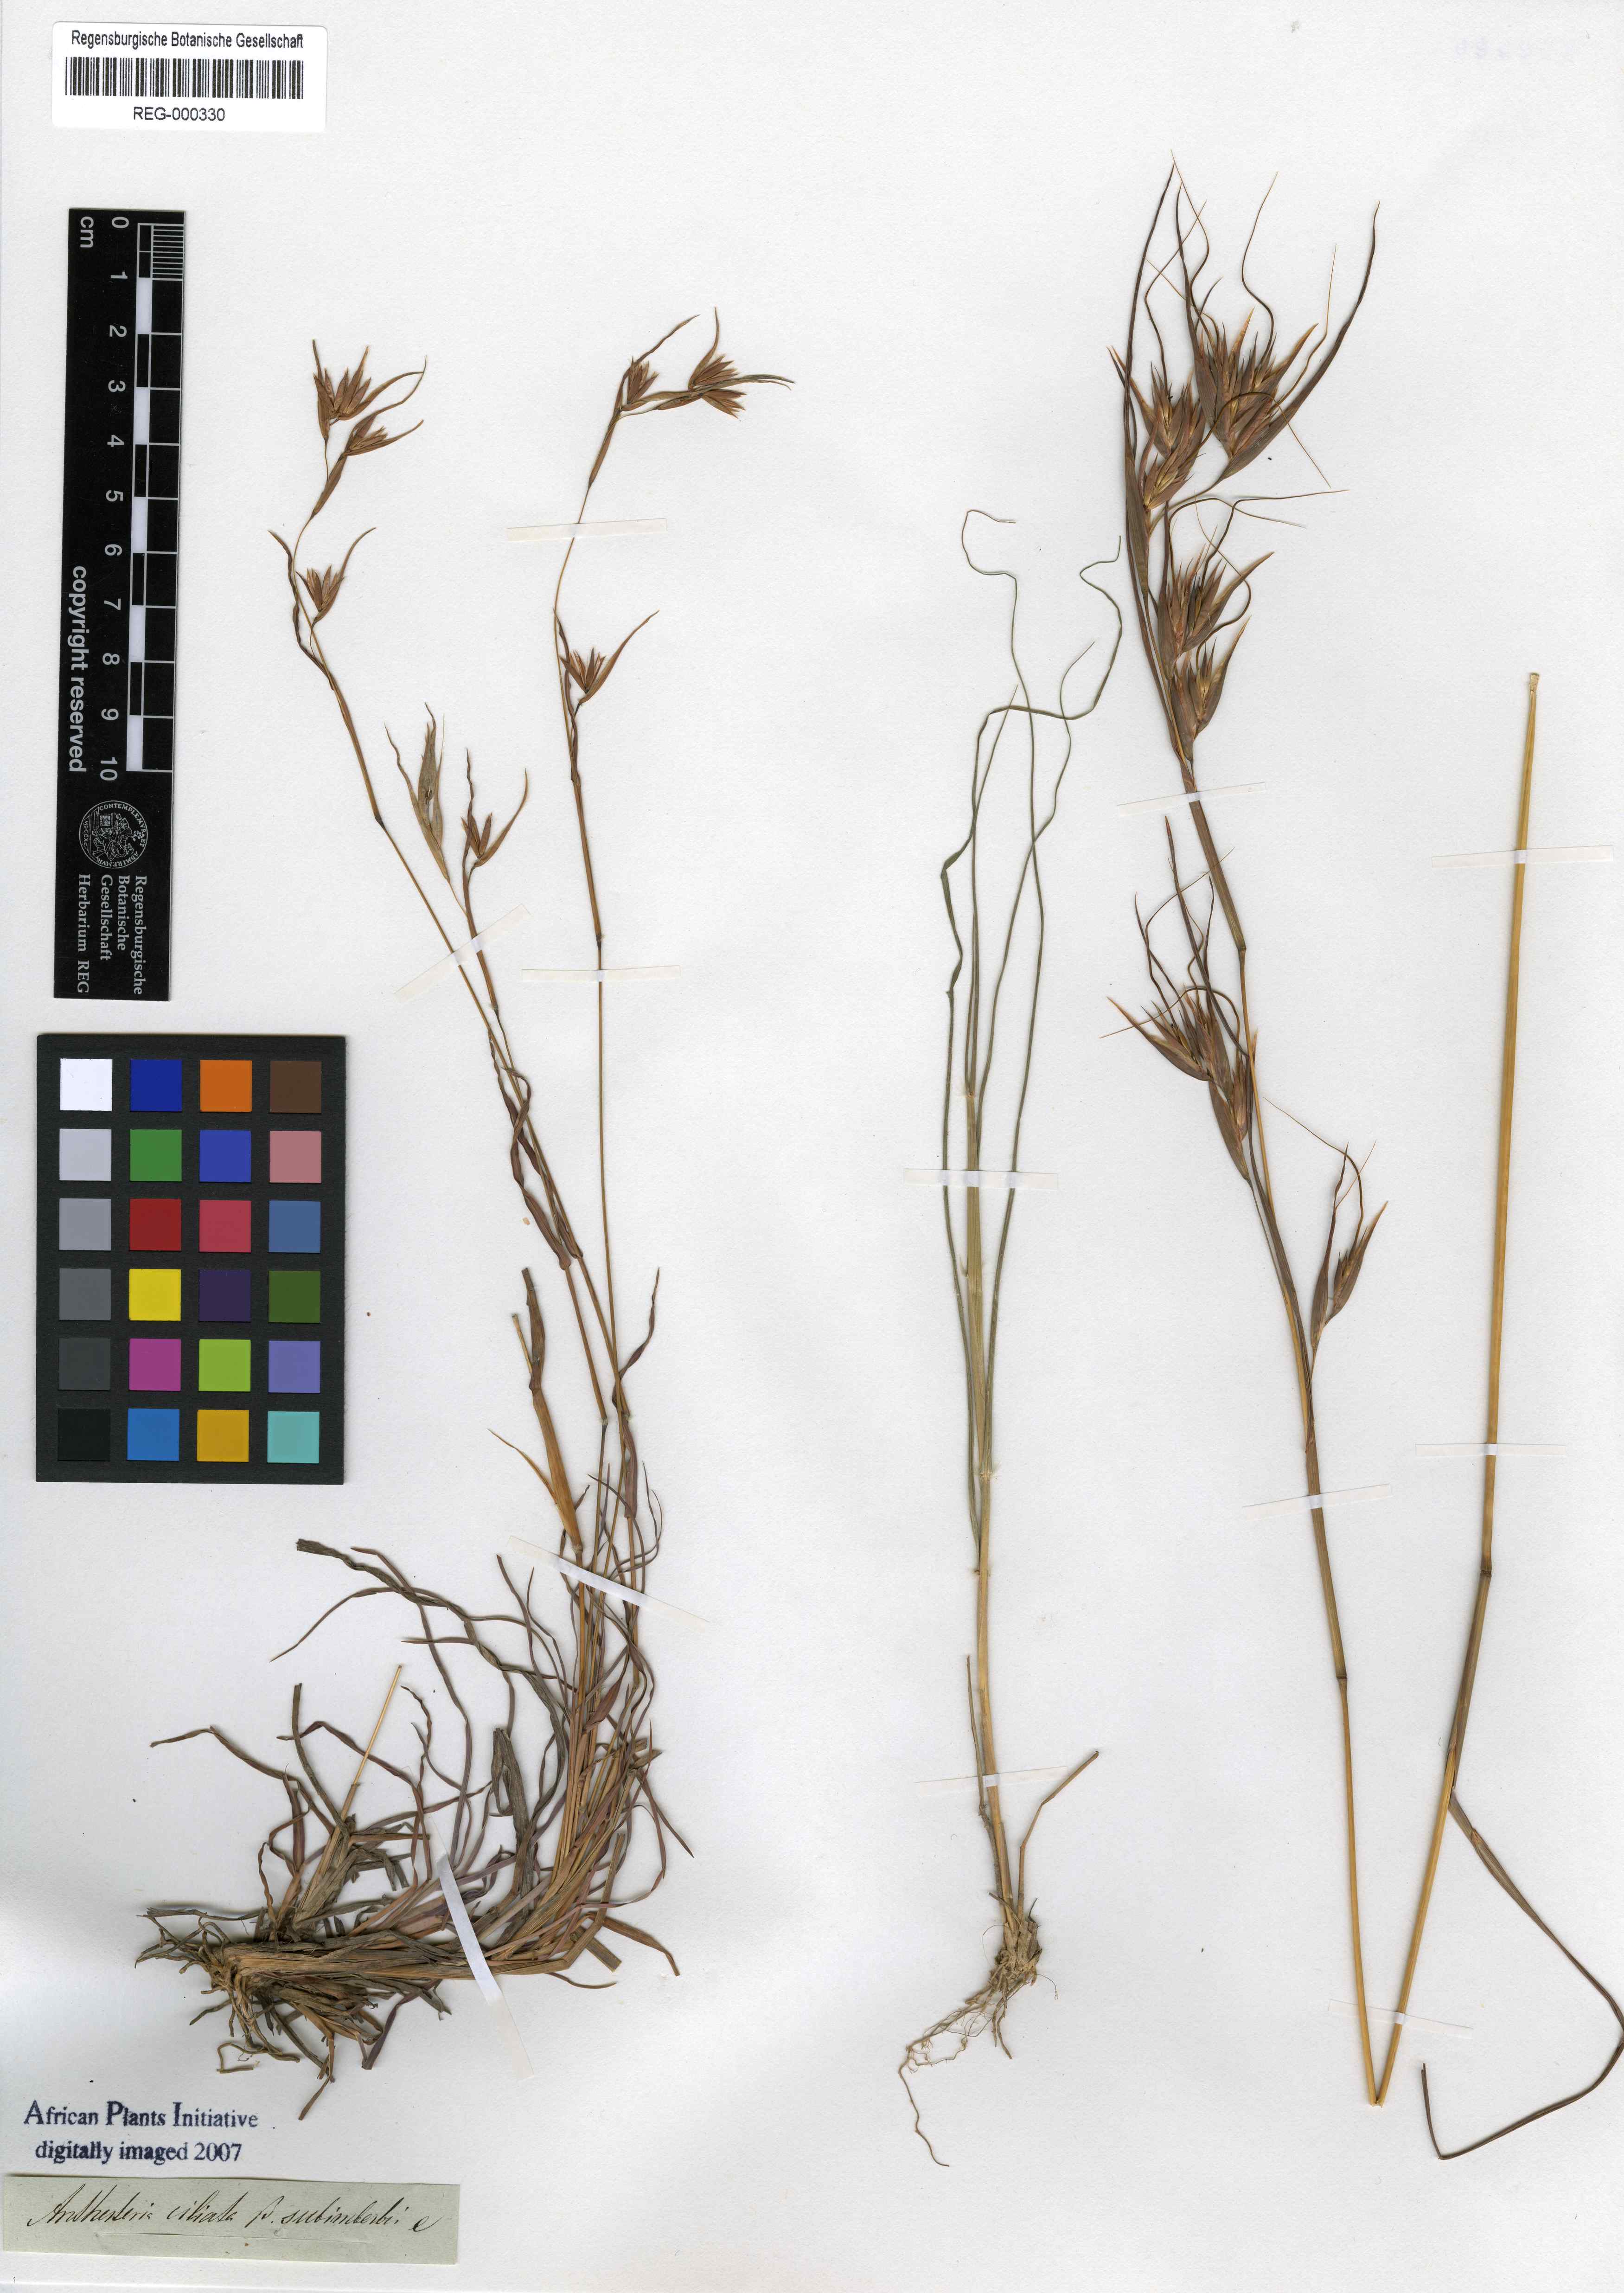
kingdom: Plantae
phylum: Tracheophyta
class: Liliopsida
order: Poales
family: Poaceae
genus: Themeda
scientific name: Themeda
